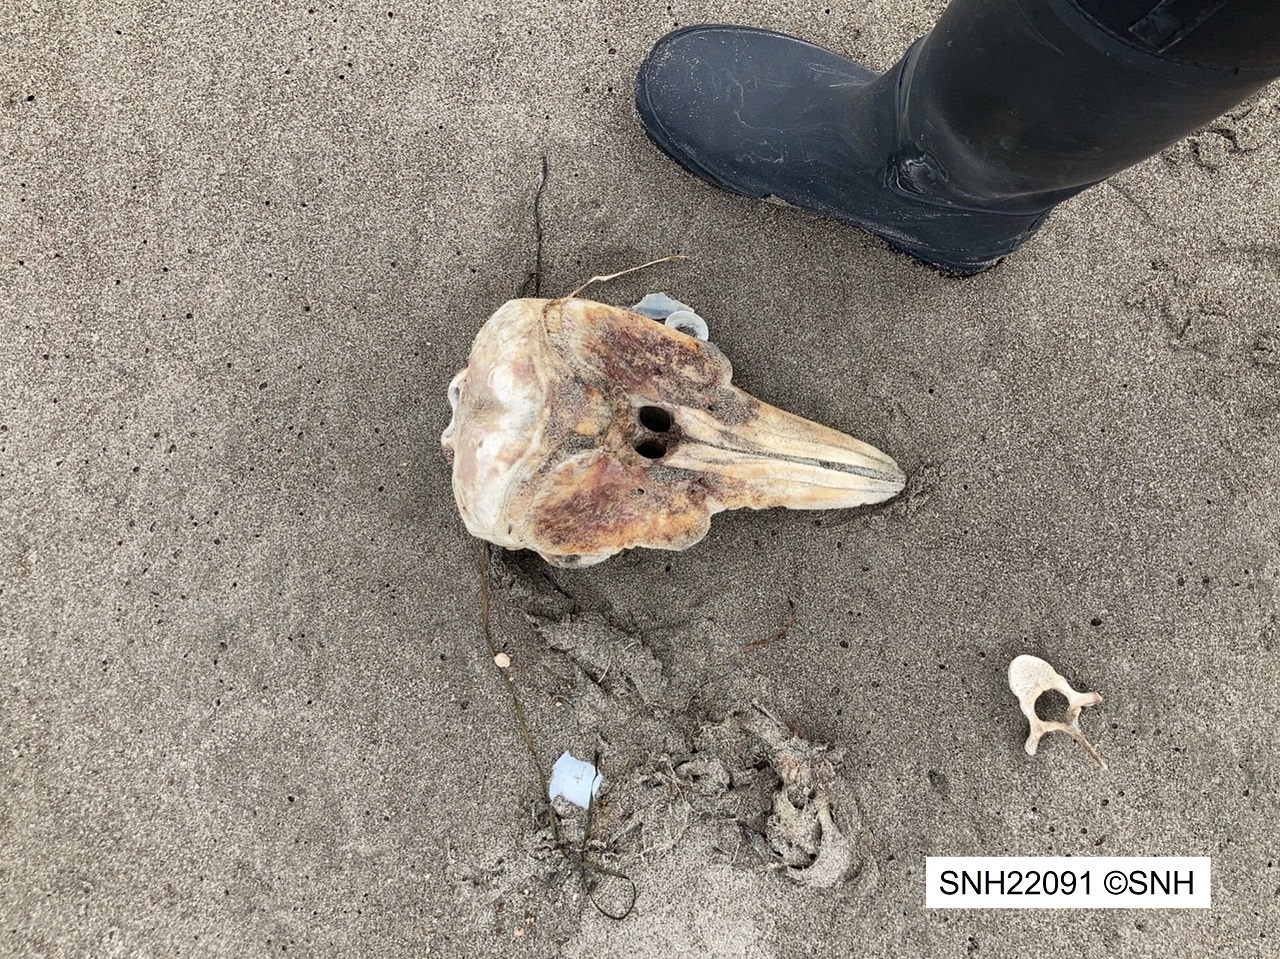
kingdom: Animalia
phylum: Chordata
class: Mammalia
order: Cetacea
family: Phocoenidae
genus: Phocoena
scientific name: Phocoena phocoena
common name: Harbour porpoise
